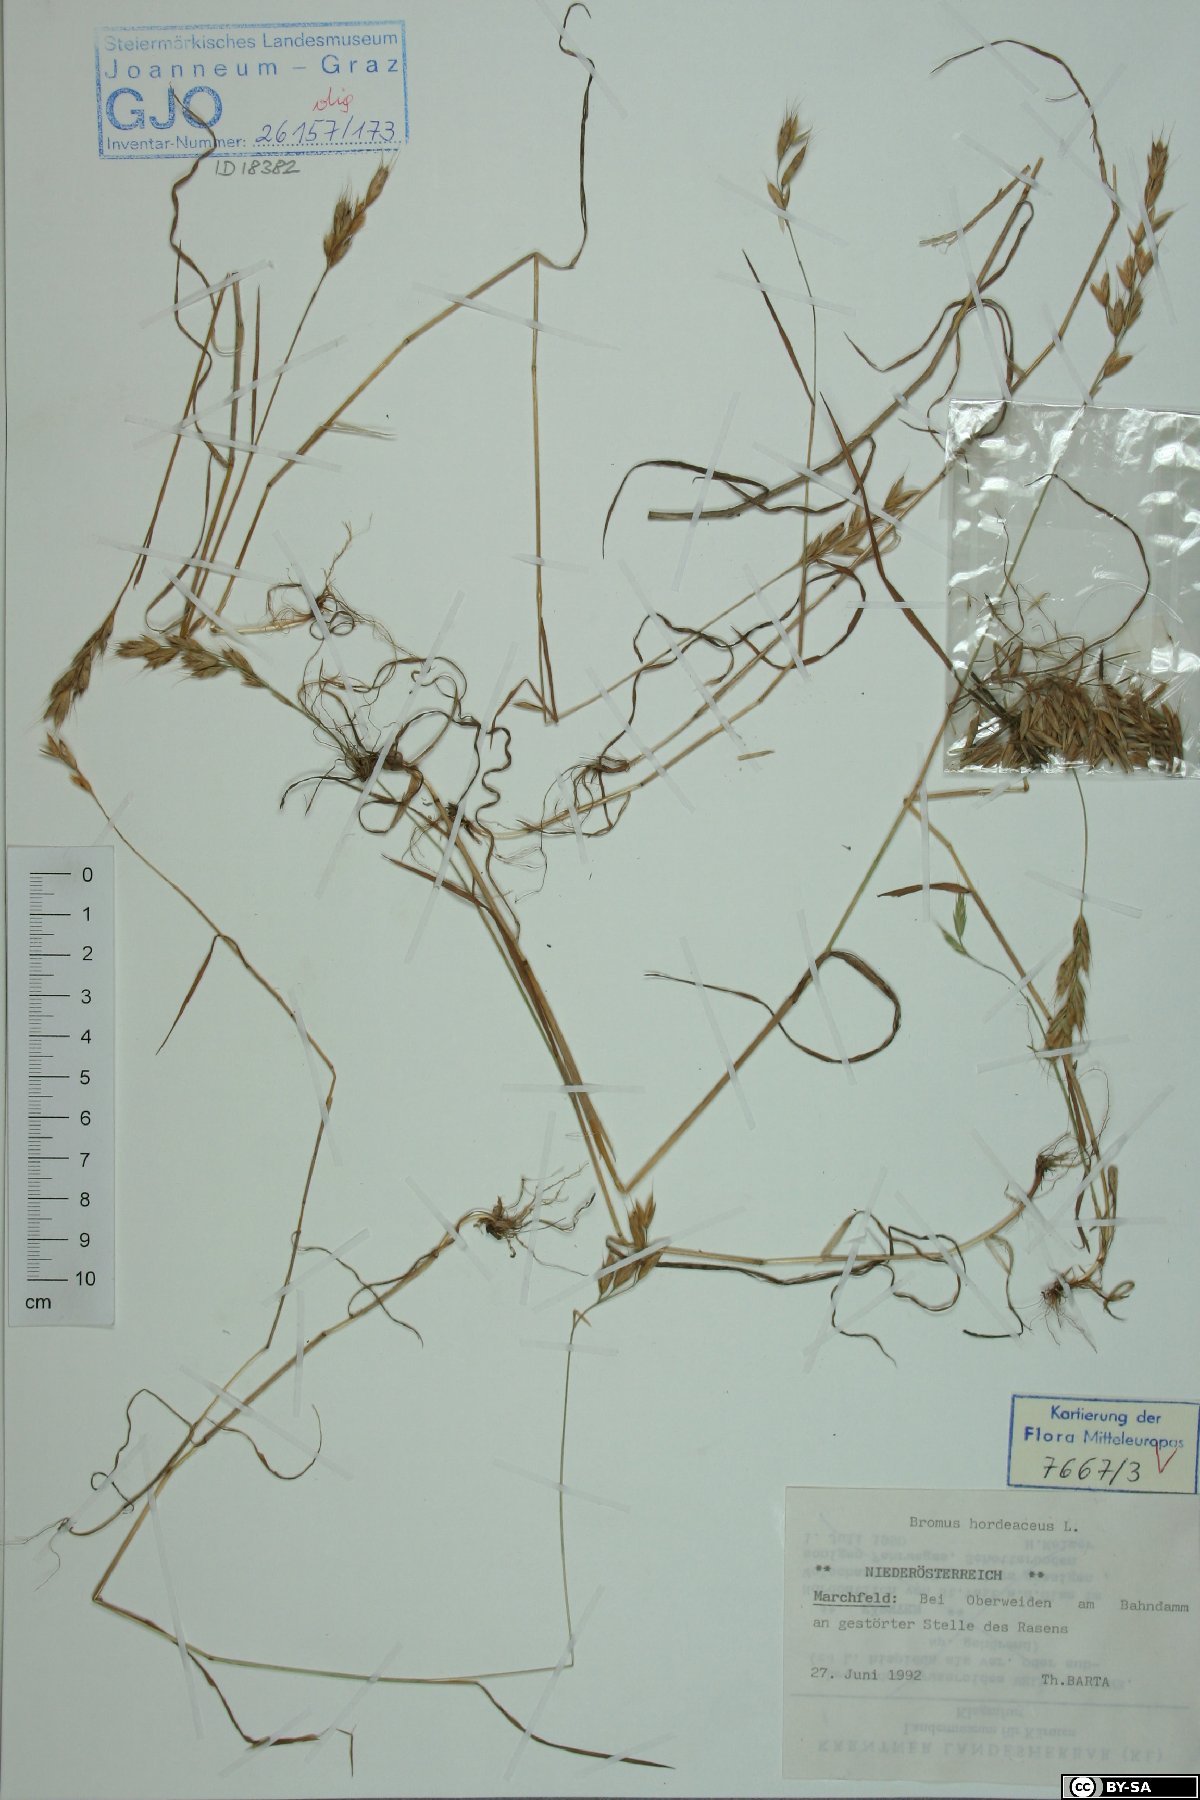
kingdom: Plantae
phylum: Tracheophyta
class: Liliopsida
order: Poales
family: Poaceae
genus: Bromus
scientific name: Bromus hordeaceus
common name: Soft brome
